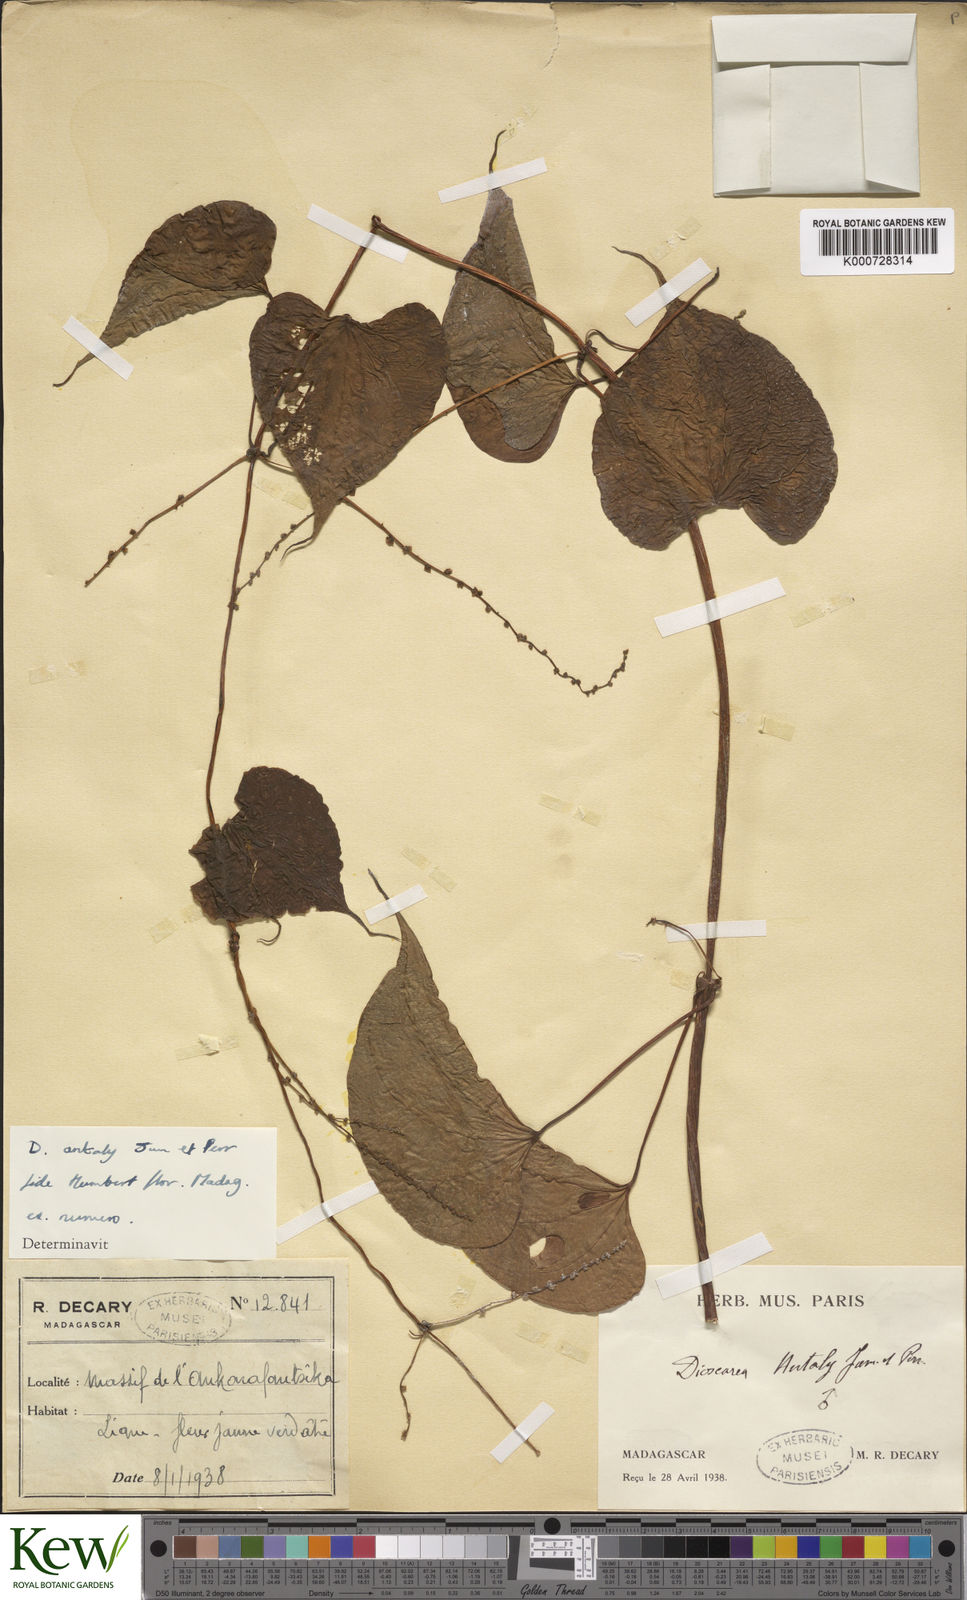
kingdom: Plantae
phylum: Tracheophyta
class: Liliopsida
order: Dioscoreales
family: Dioscoreaceae
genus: Dioscorea
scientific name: Dioscorea antaly
